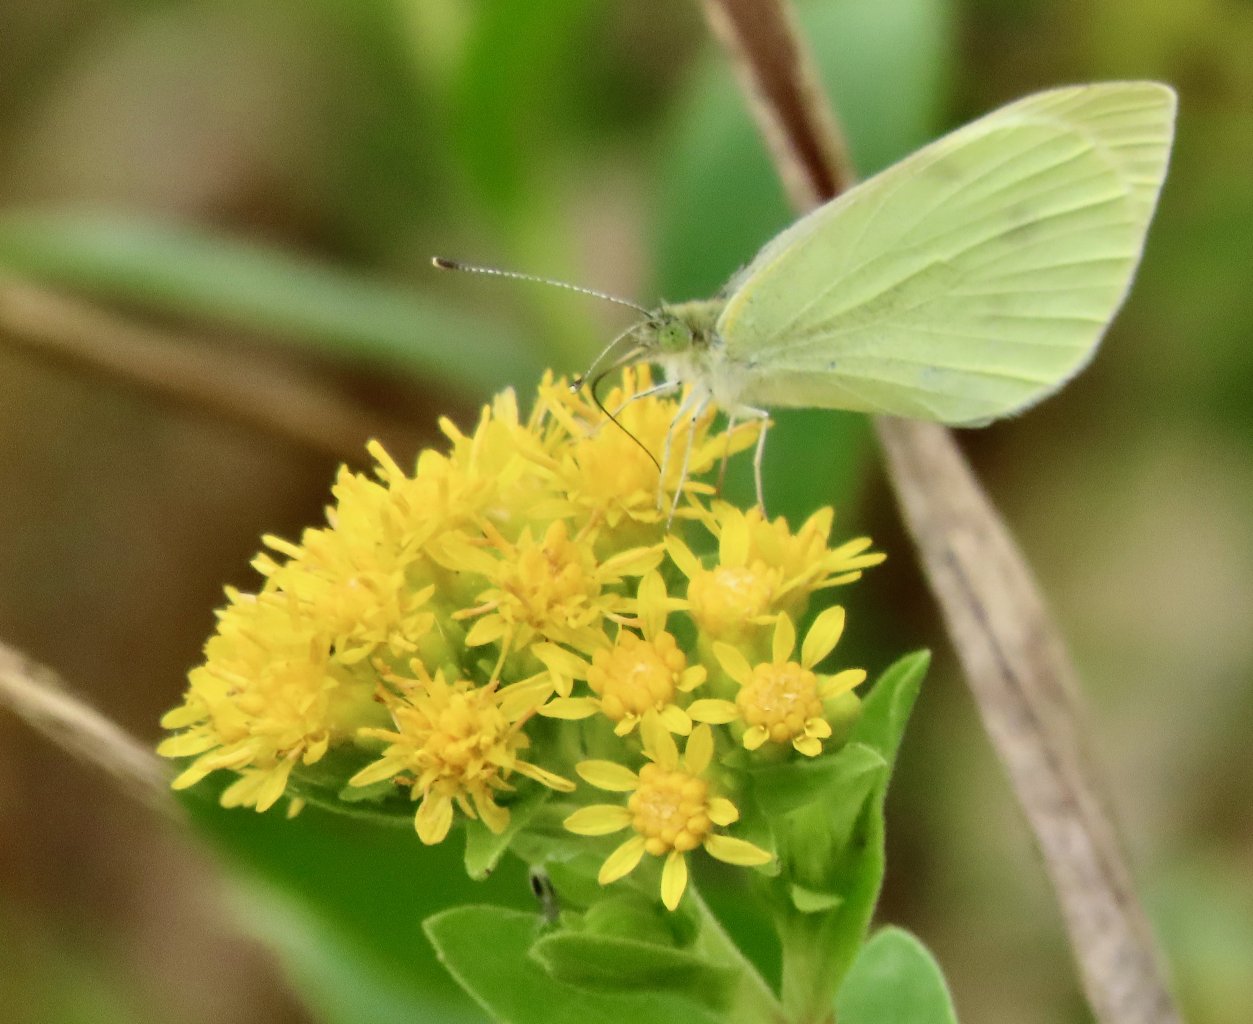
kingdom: Animalia
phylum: Arthropoda
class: Insecta
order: Lepidoptera
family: Pieridae
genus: Pieris
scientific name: Pieris rapae
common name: Cabbage White
